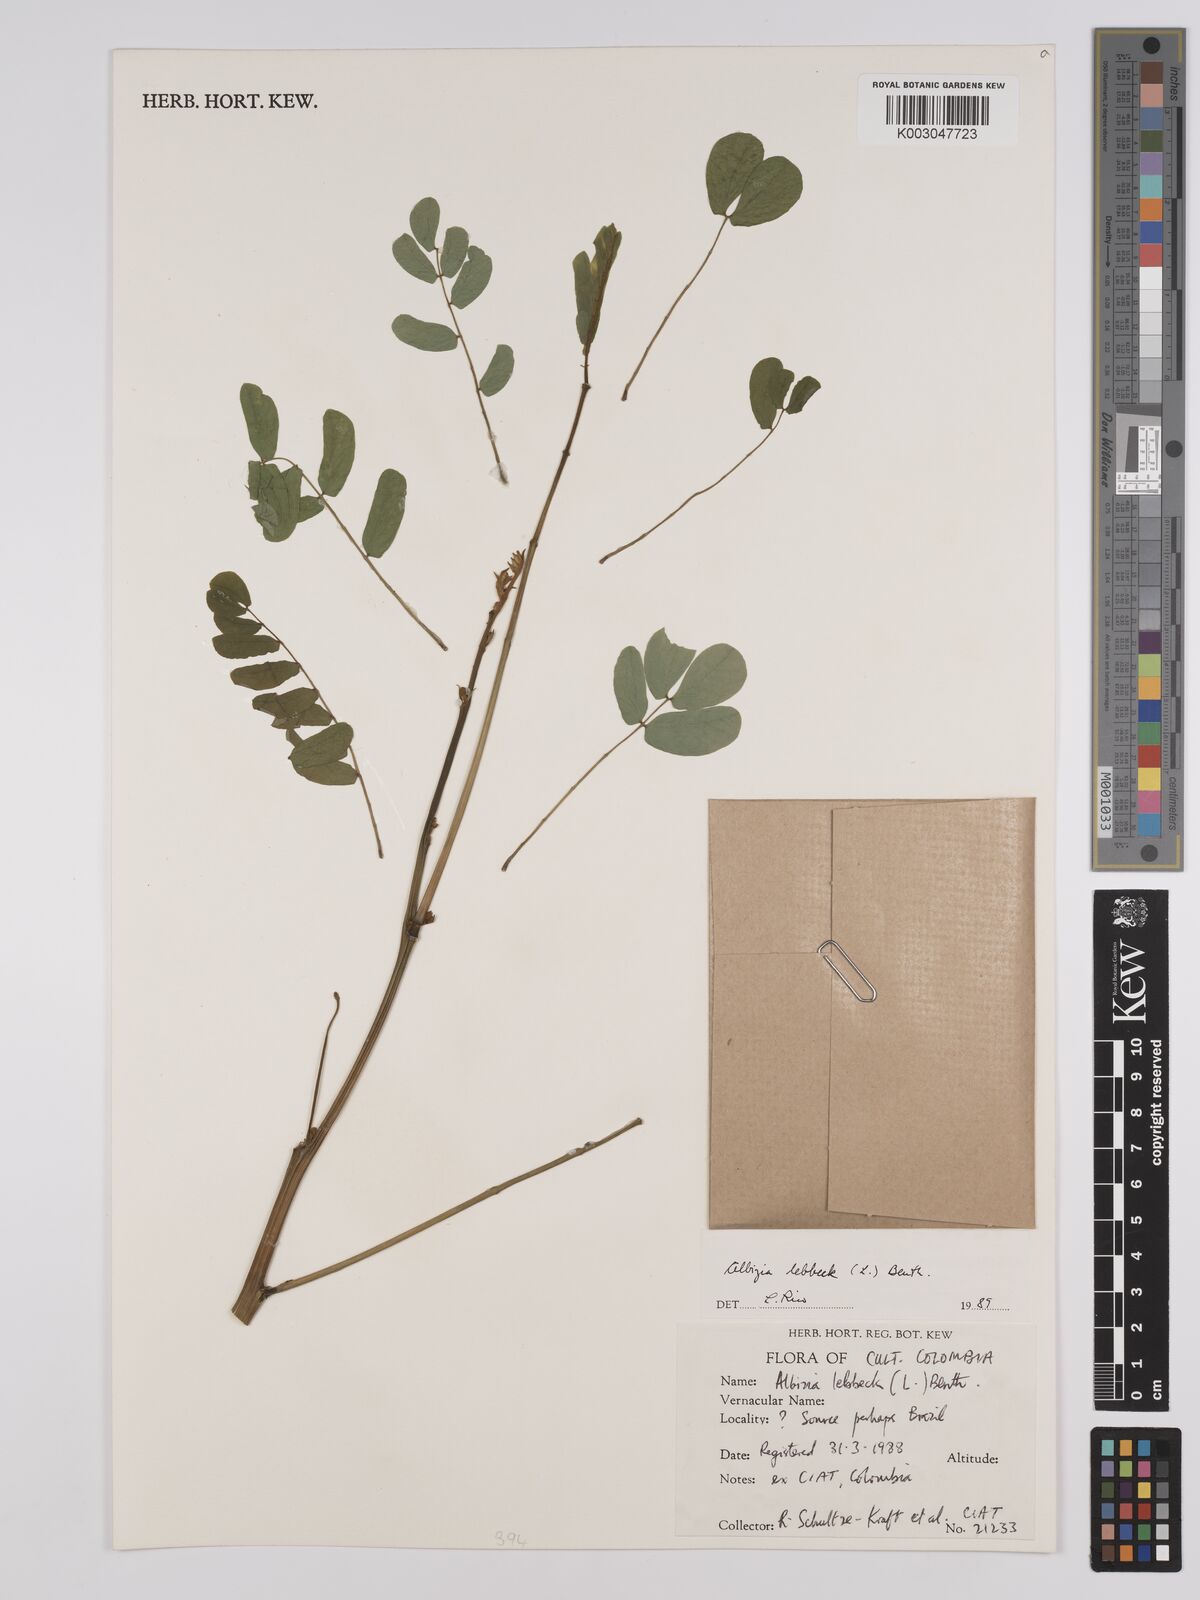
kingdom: Plantae
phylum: Tracheophyta
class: Magnoliopsida
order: Fabales
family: Fabaceae
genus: Albizia
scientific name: Albizia lebbeck
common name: Woman's tongue
